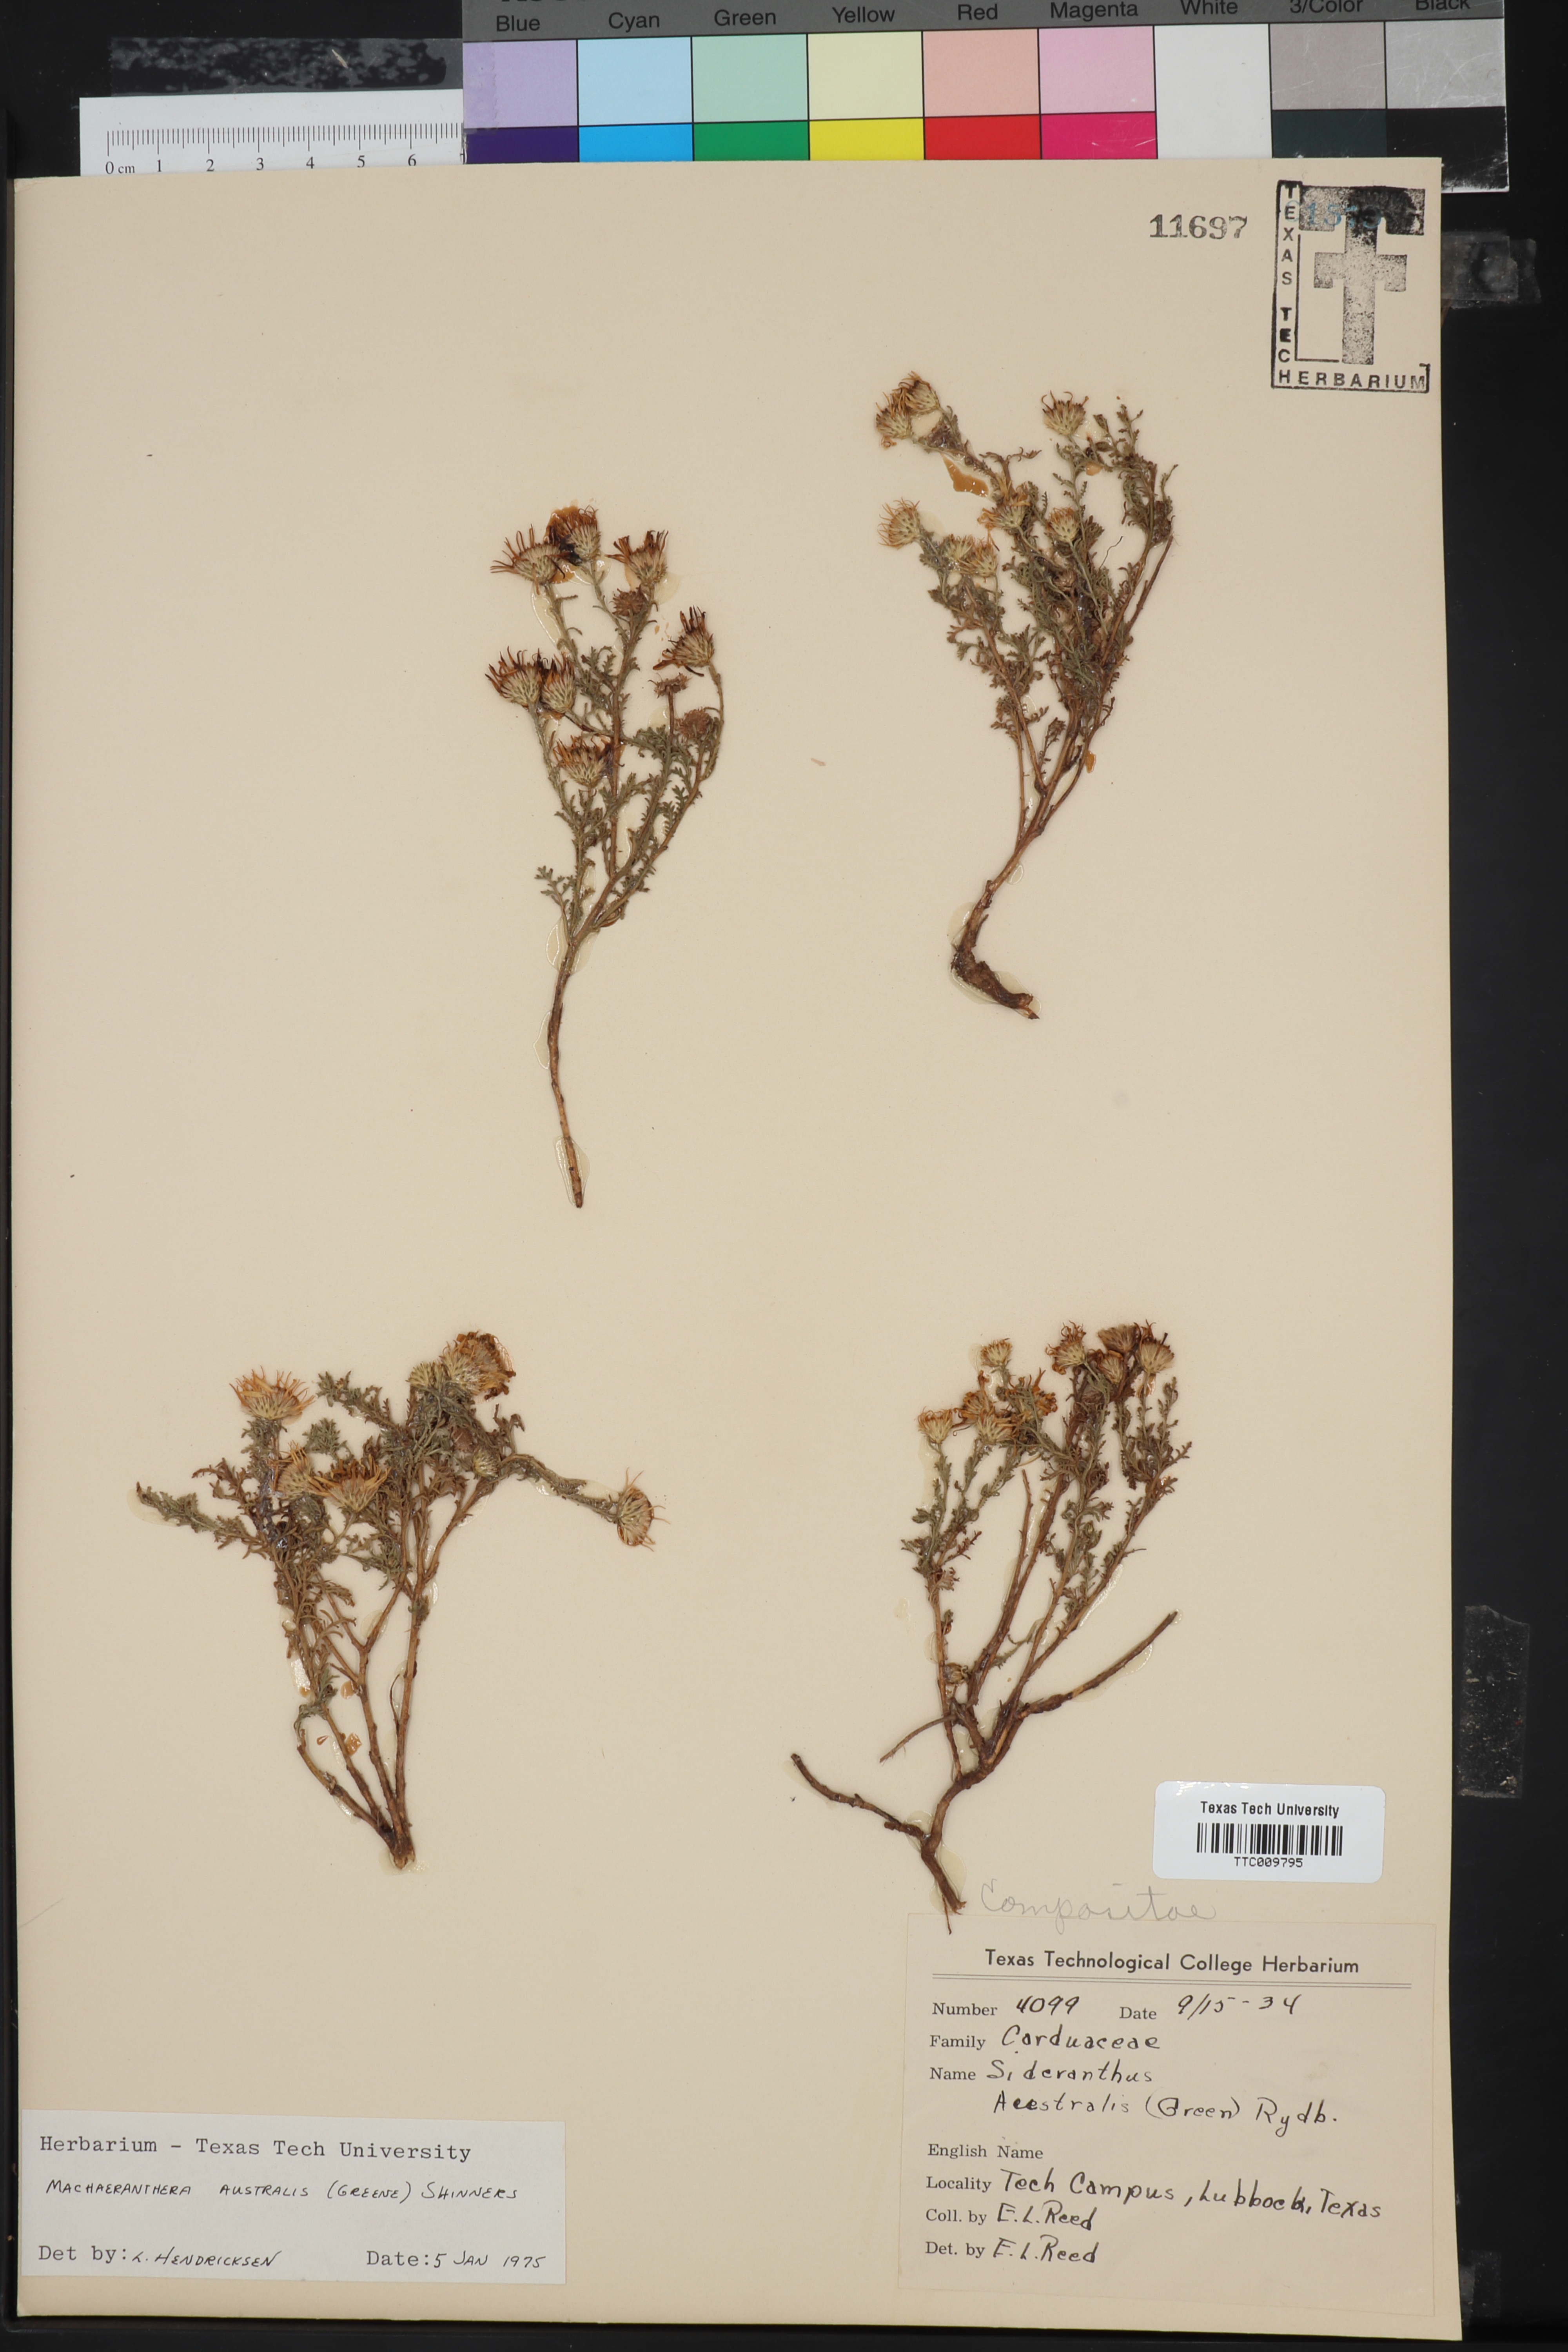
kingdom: Plantae
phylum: Tracheophyta
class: Magnoliopsida
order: Asterales
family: Asteraceae
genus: Xanthisma
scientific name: Xanthisma spinulosum
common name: Spiny goldenweed
